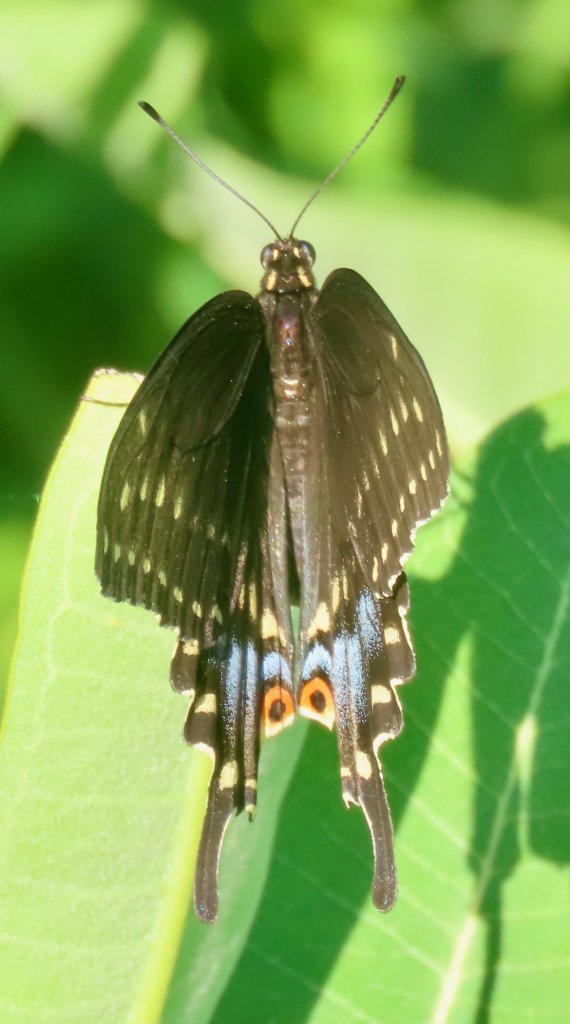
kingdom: Animalia
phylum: Arthropoda
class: Insecta
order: Lepidoptera
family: Papilionidae
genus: Papilio
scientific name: Papilio polyxenes
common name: Black Swallowtail
